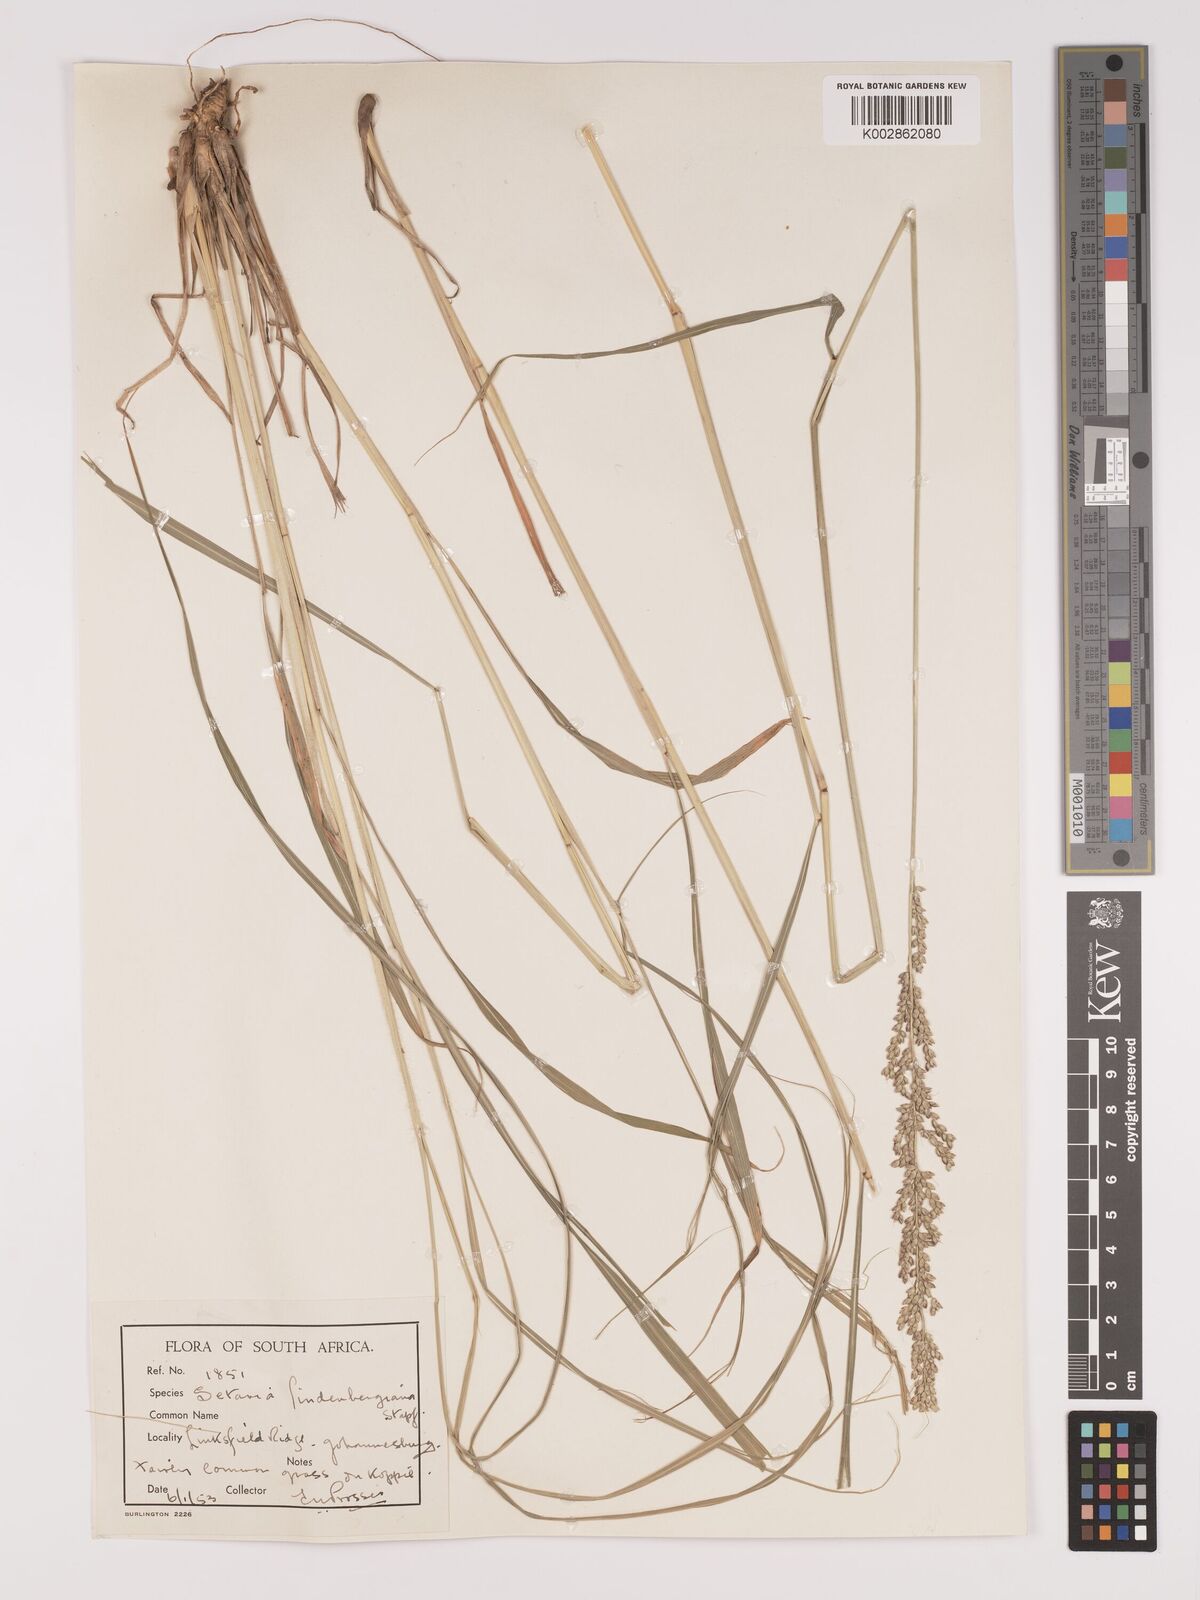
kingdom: Plantae
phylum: Tracheophyta
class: Liliopsida
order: Poales
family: Poaceae
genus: Setaria
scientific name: Setaria lindenbergiana
